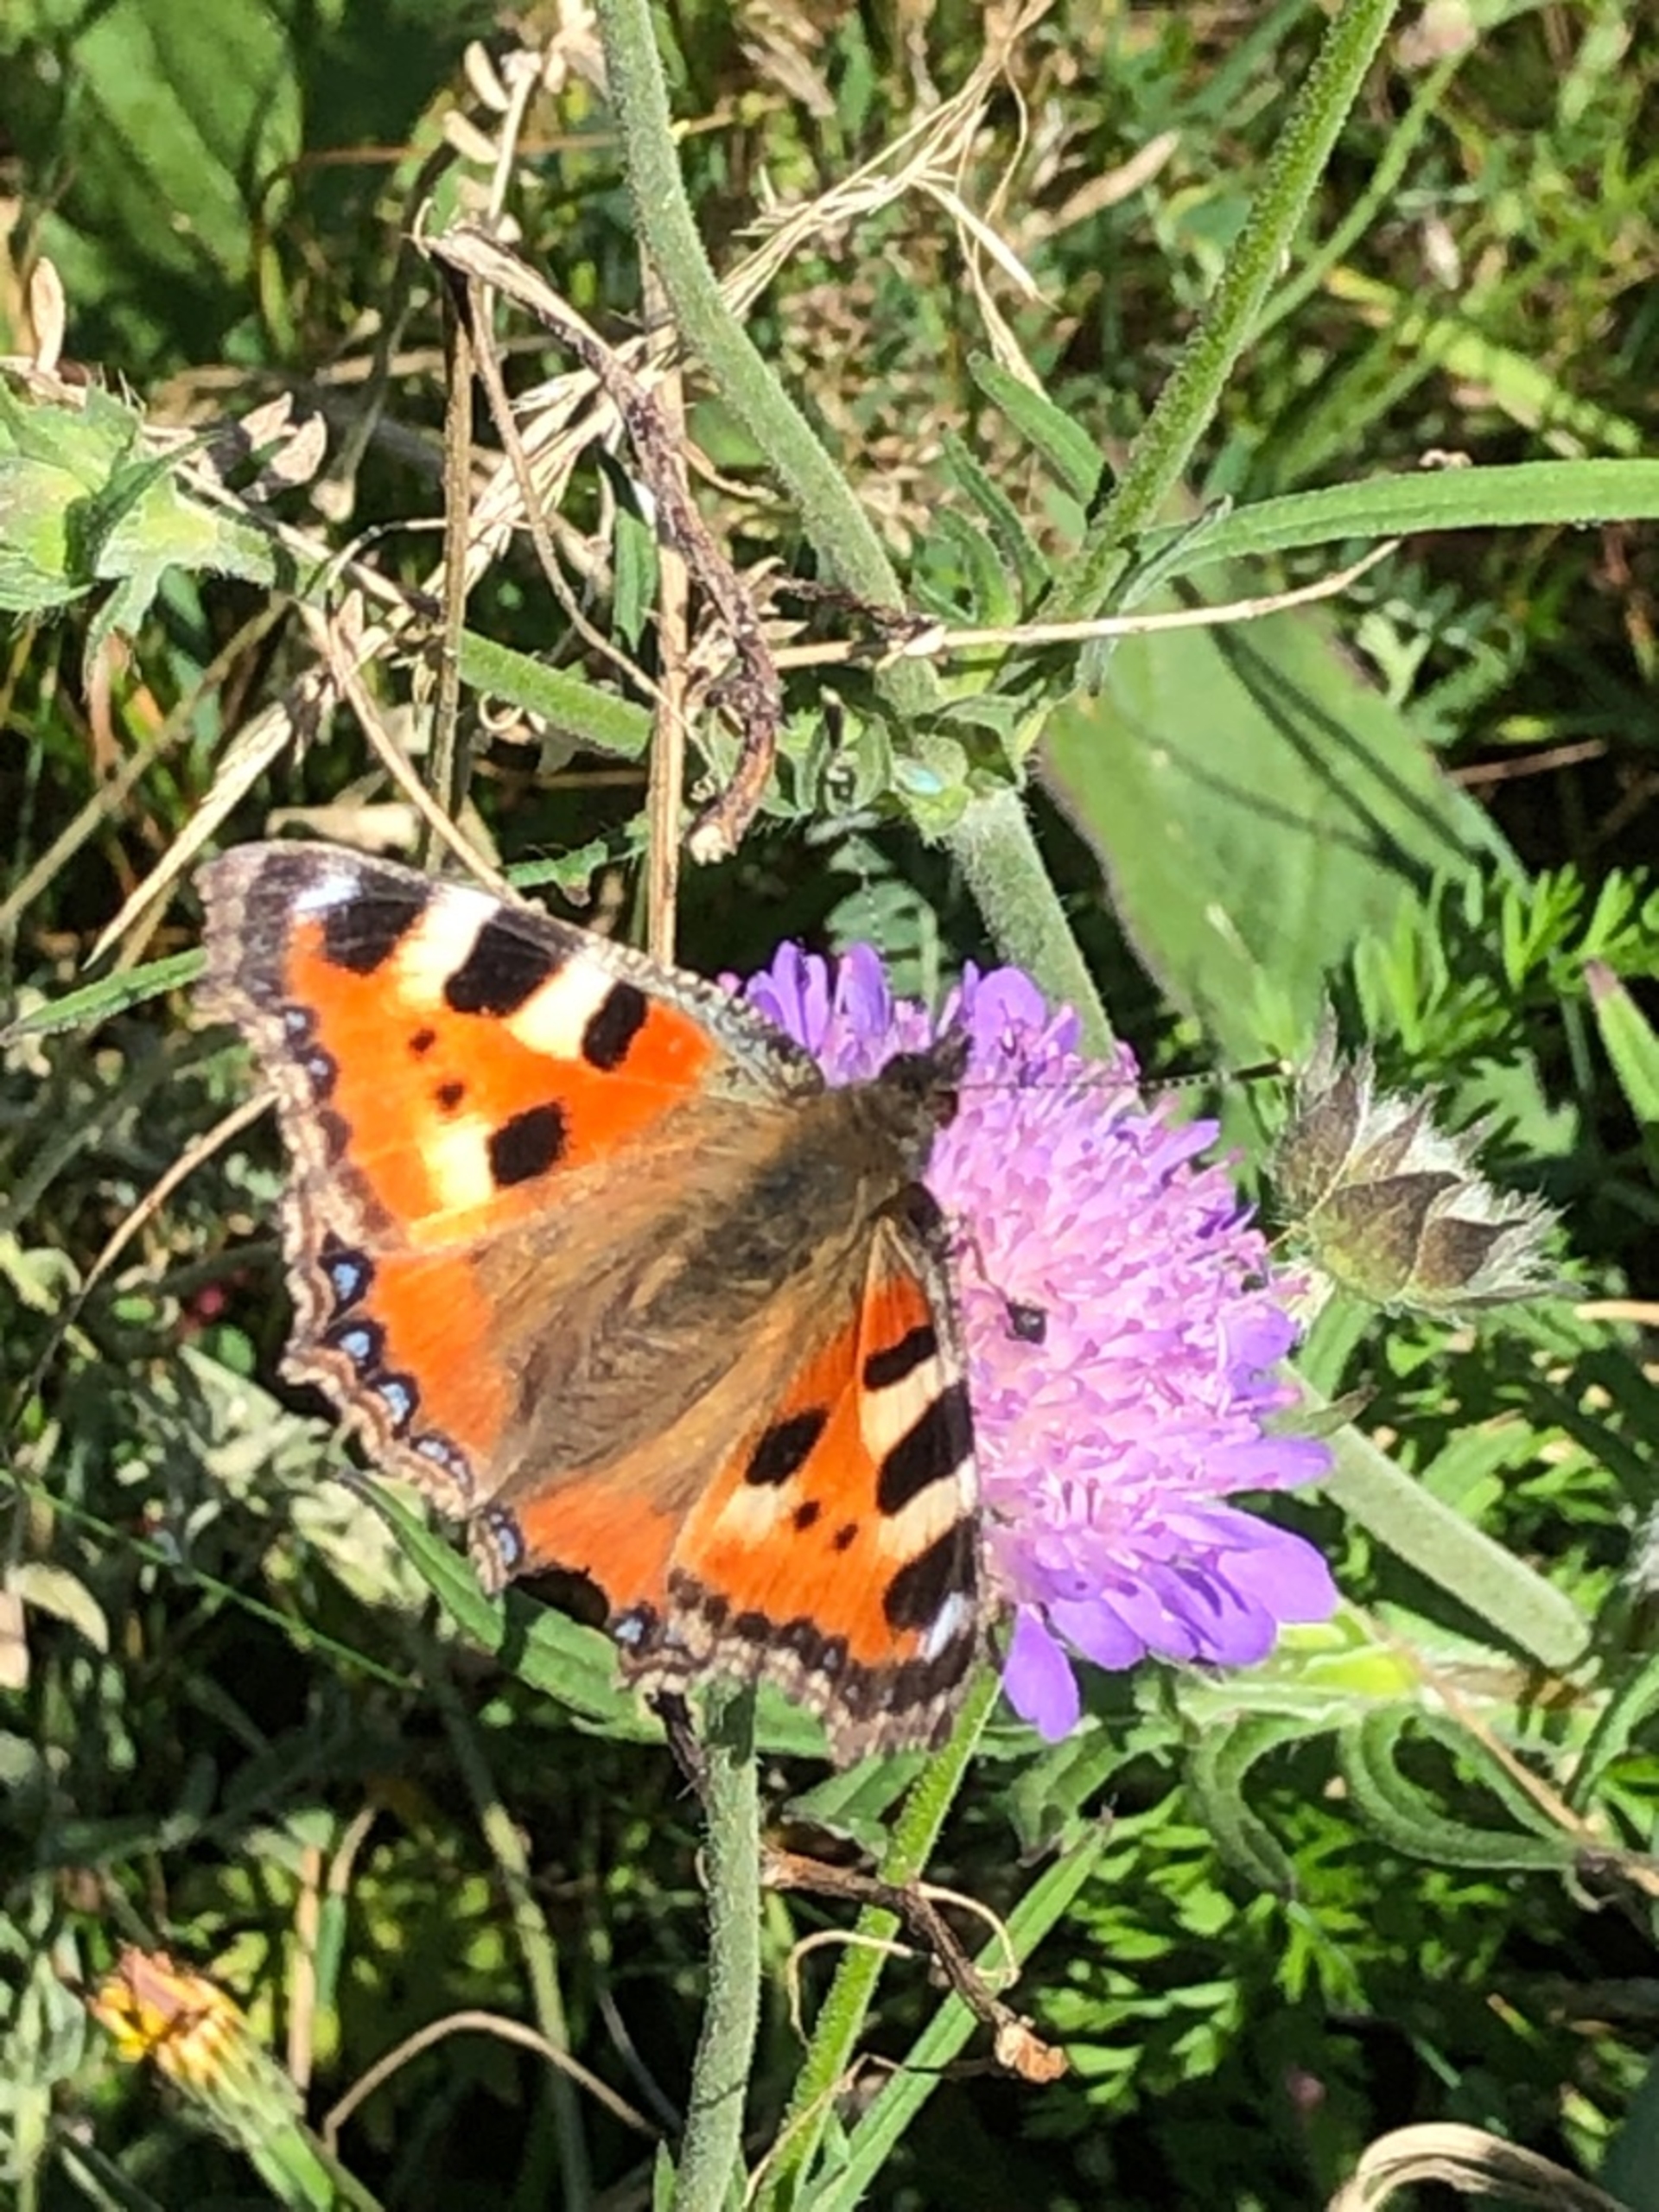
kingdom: Animalia
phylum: Arthropoda
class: Insecta
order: Lepidoptera
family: Nymphalidae
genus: Aglais
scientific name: Aglais urticae
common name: Nældens takvinge
